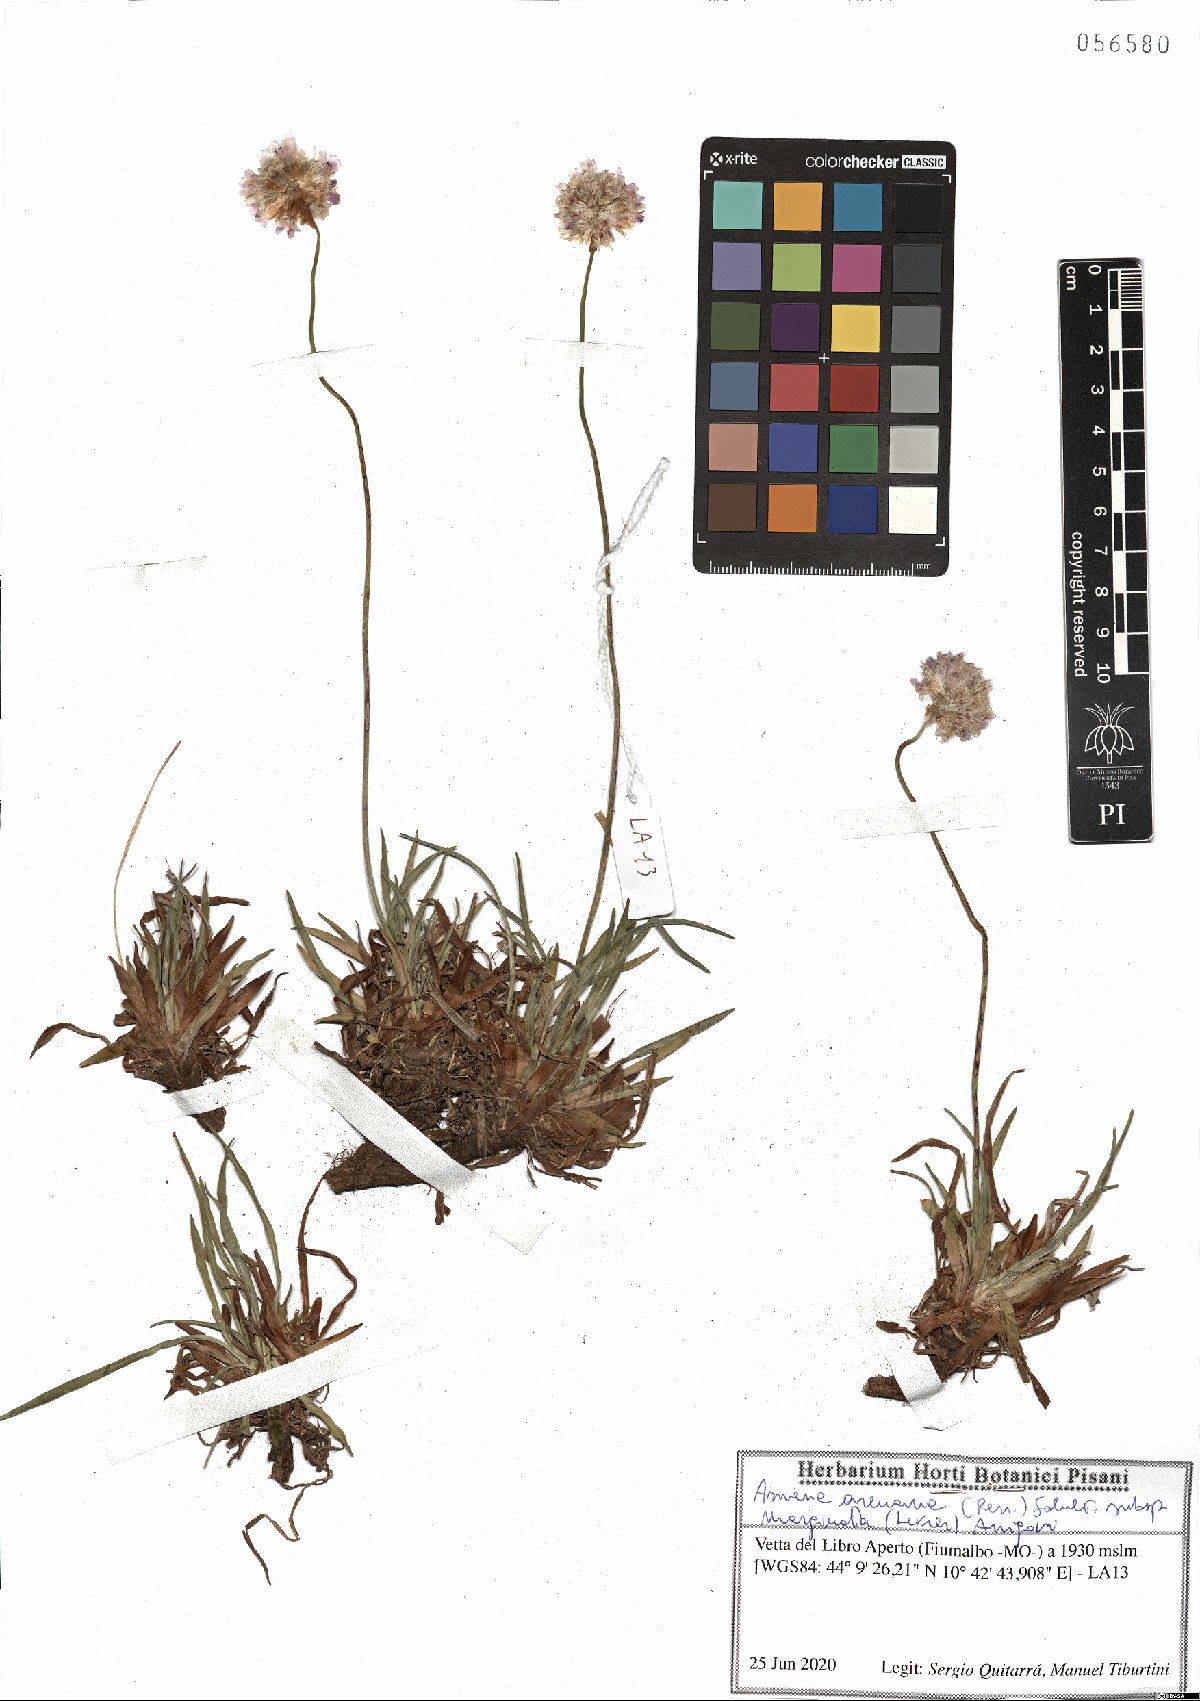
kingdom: Plantae
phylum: Tracheophyta
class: Magnoliopsida
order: Caryophyllales
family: Plumbaginaceae
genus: Armeria
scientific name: Armeria arenaria
